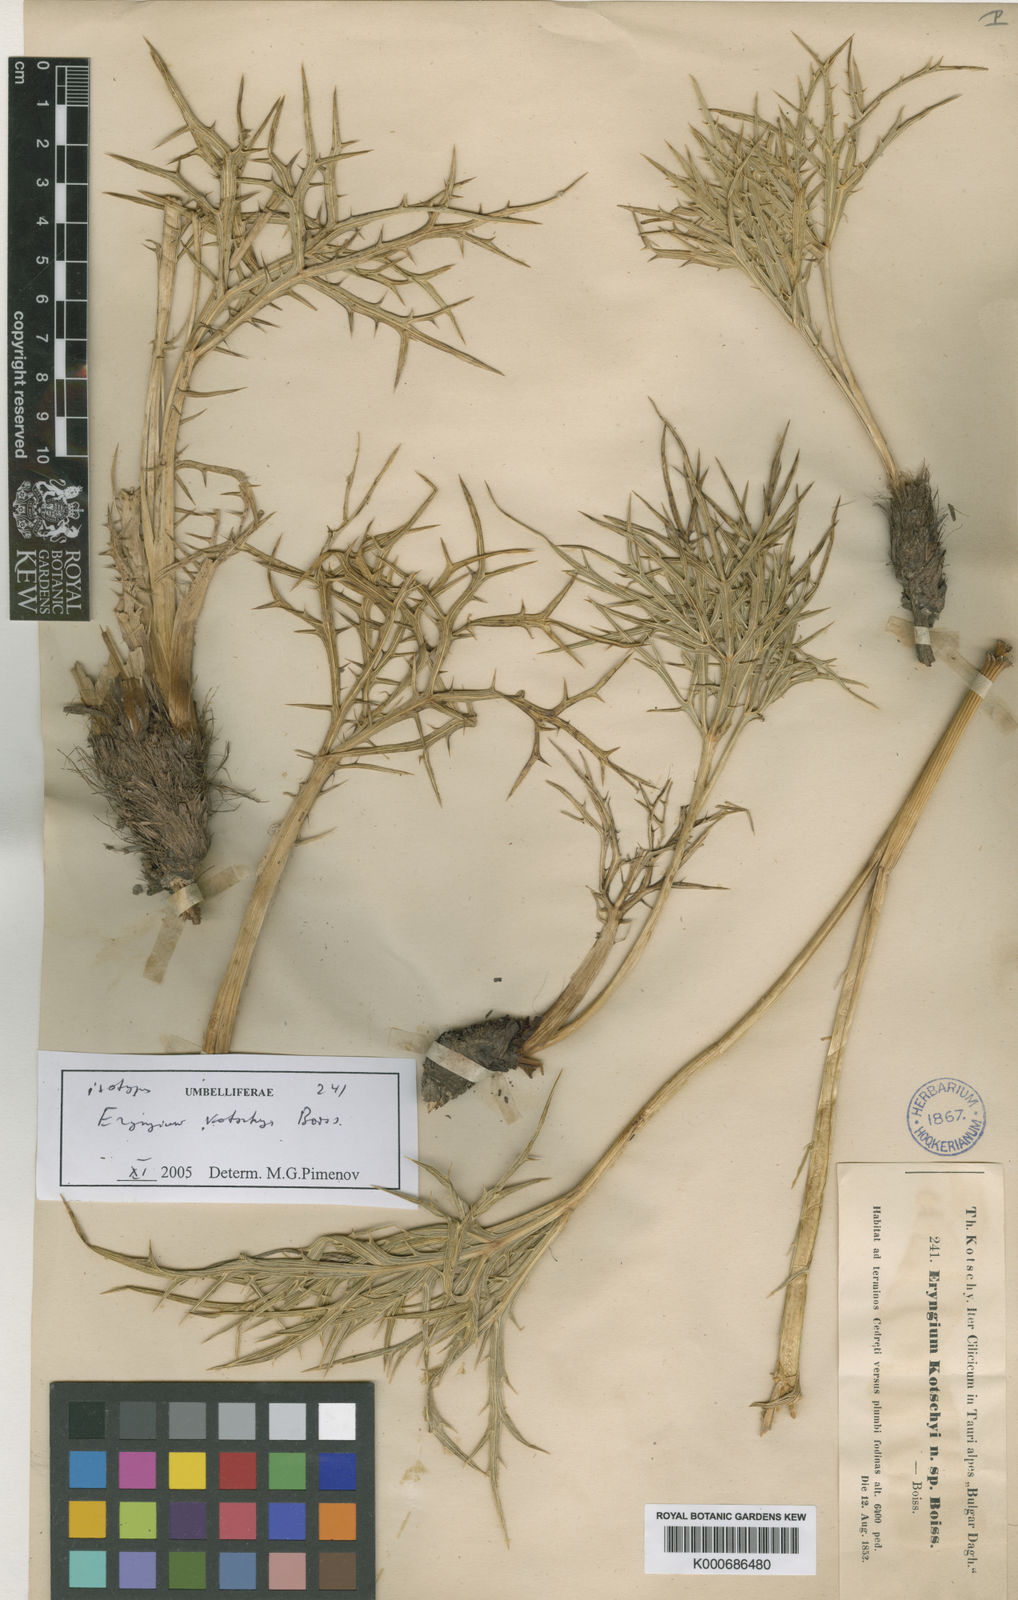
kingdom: Plantae
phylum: Tracheophyta
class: Magnoliopsida
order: Apiales
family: Apiaceae
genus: Eryngium
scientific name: Eryngium kotschyi
